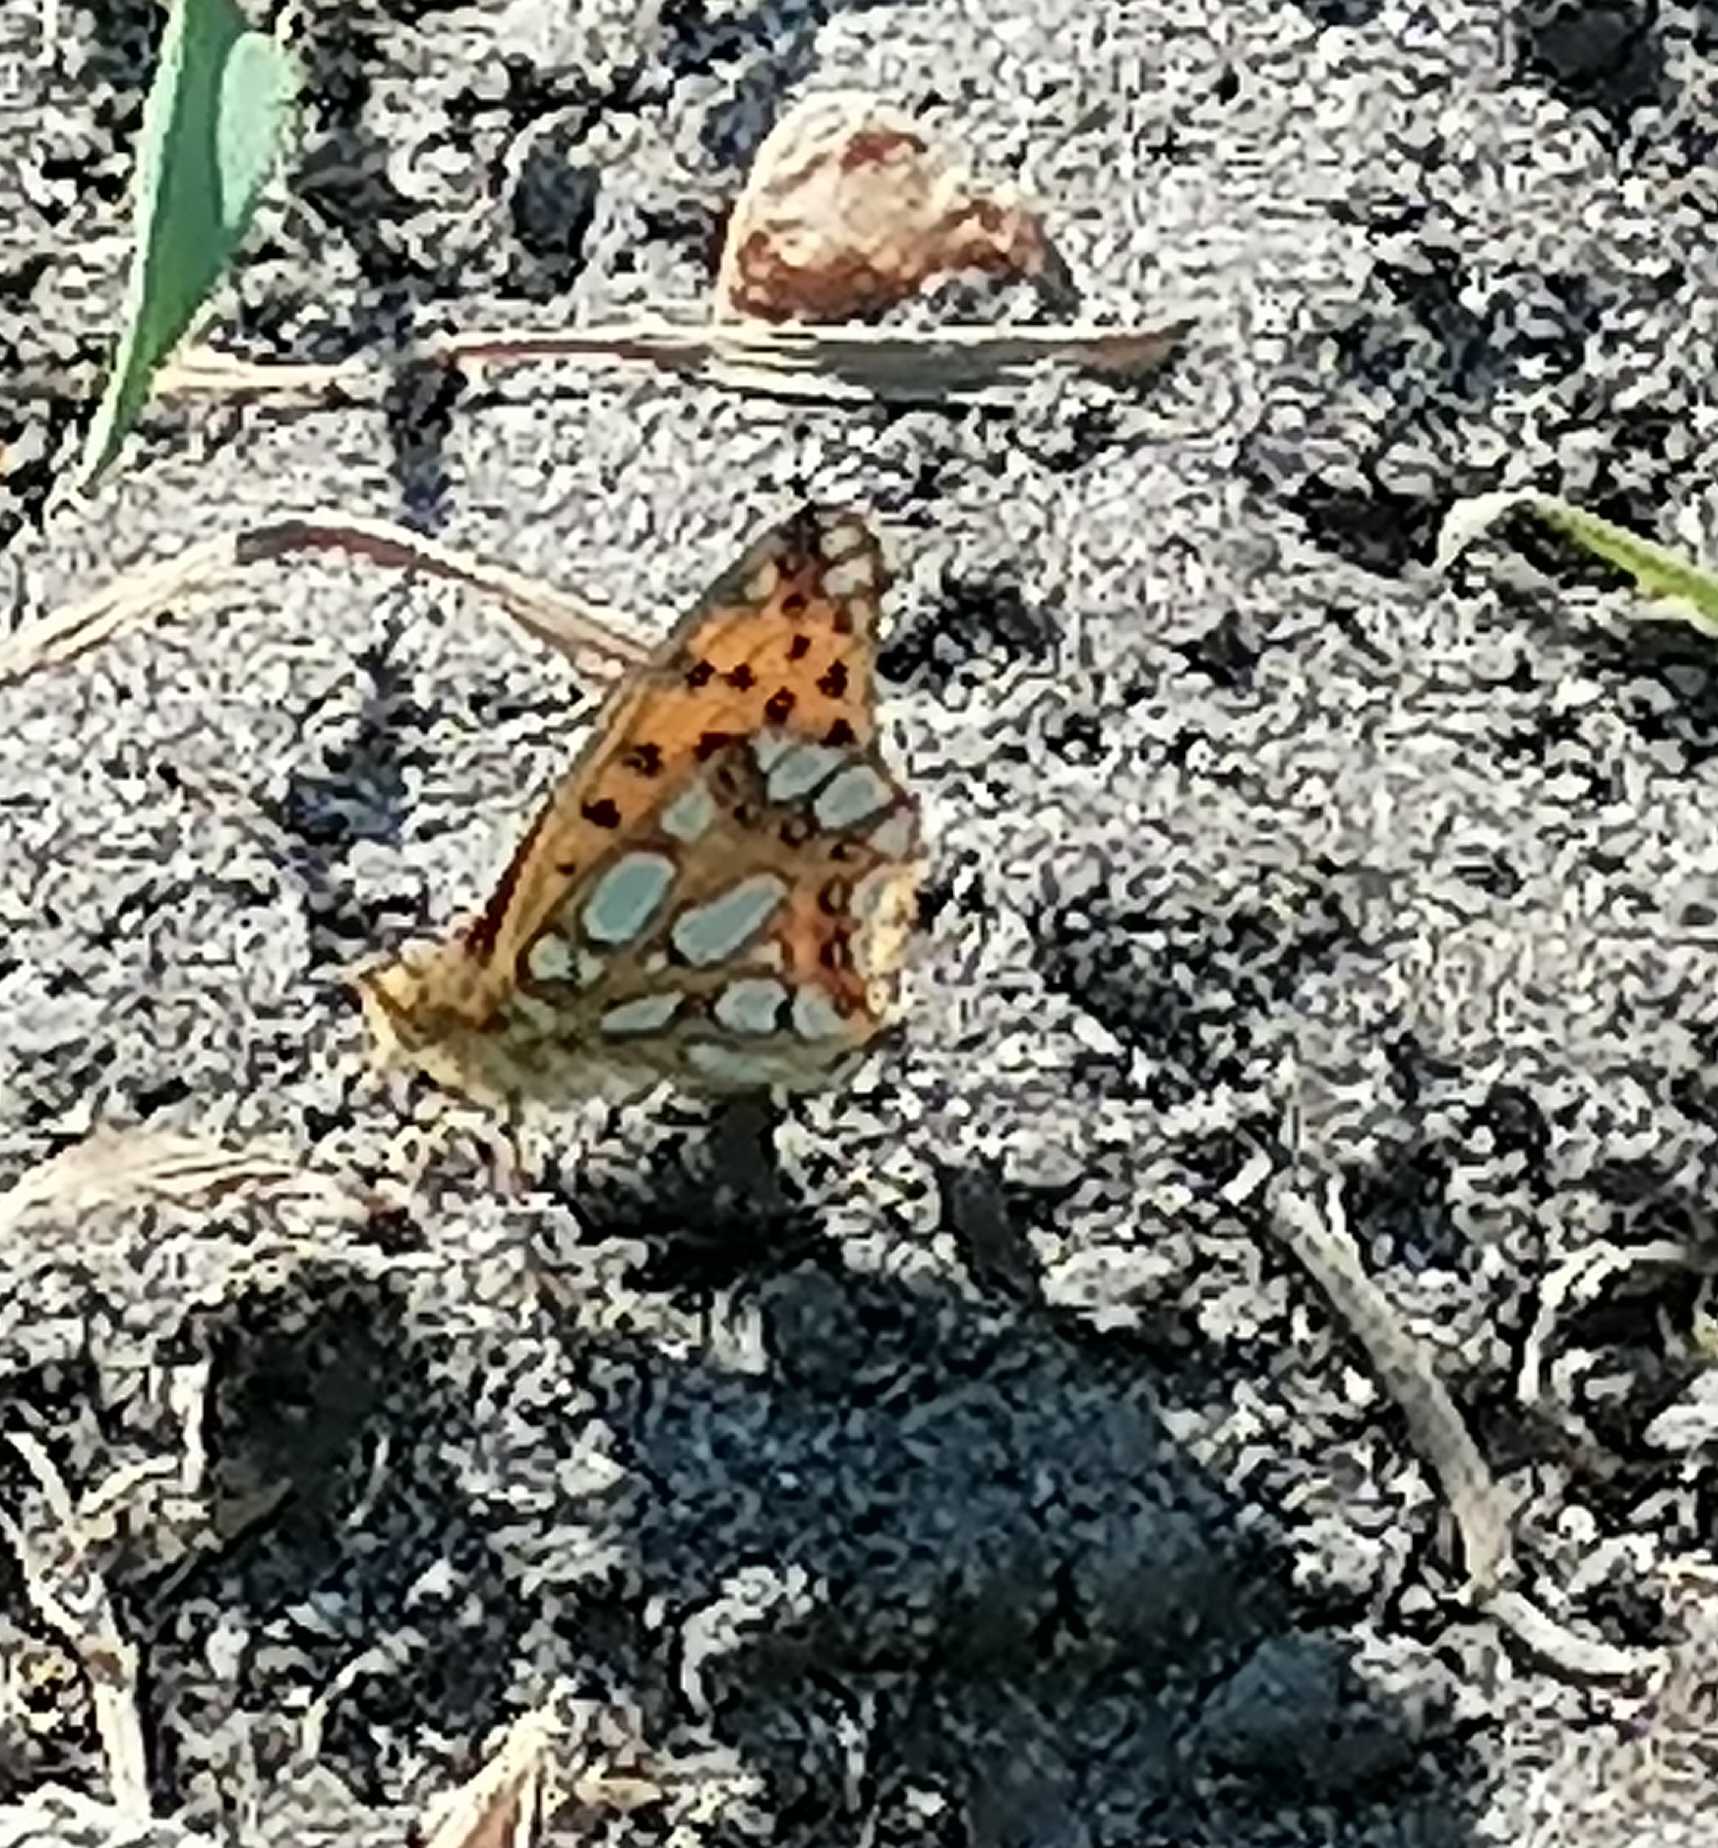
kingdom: Animalia
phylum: Arthropoda
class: Insecta
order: Lepidoptera
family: Nymphalidae
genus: Issoria
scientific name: Issoria lathonia
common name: Storplettet perlemorsommerfugl
